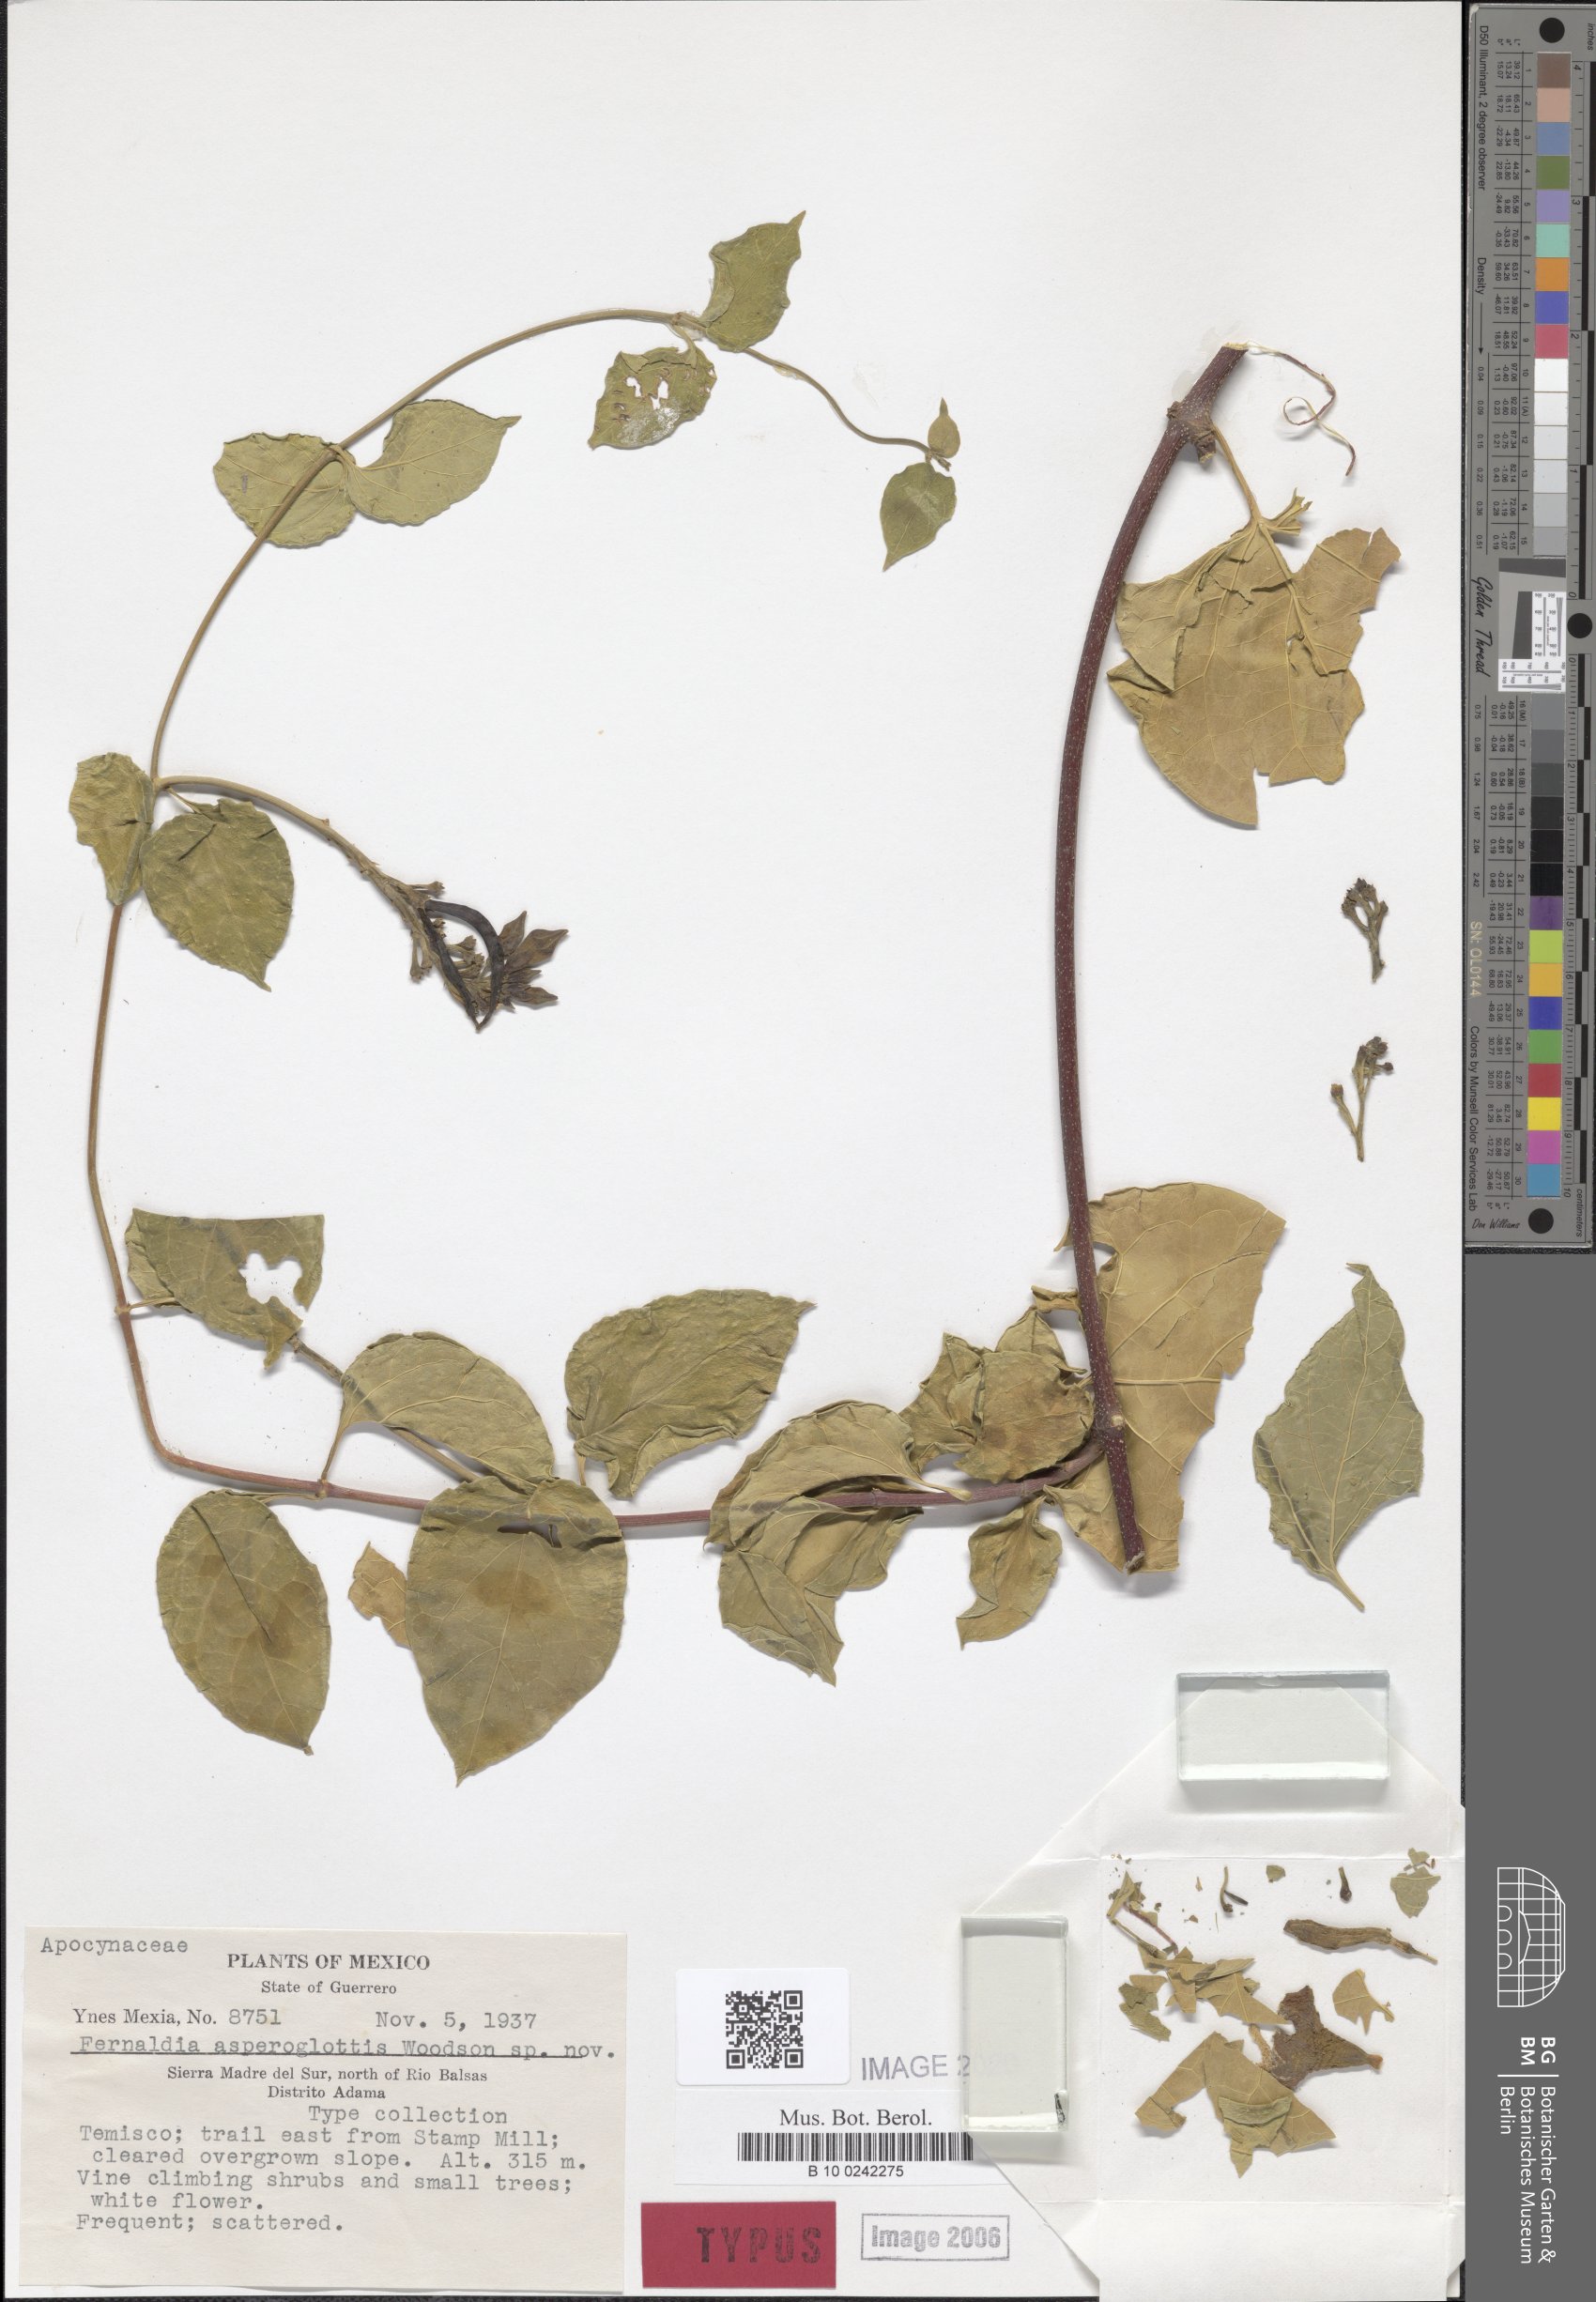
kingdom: Plantae
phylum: Tracheophyta
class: Magnoliopsida
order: Gentianales
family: Apocynaceae
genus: Echites
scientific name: Echites asperoglottis
